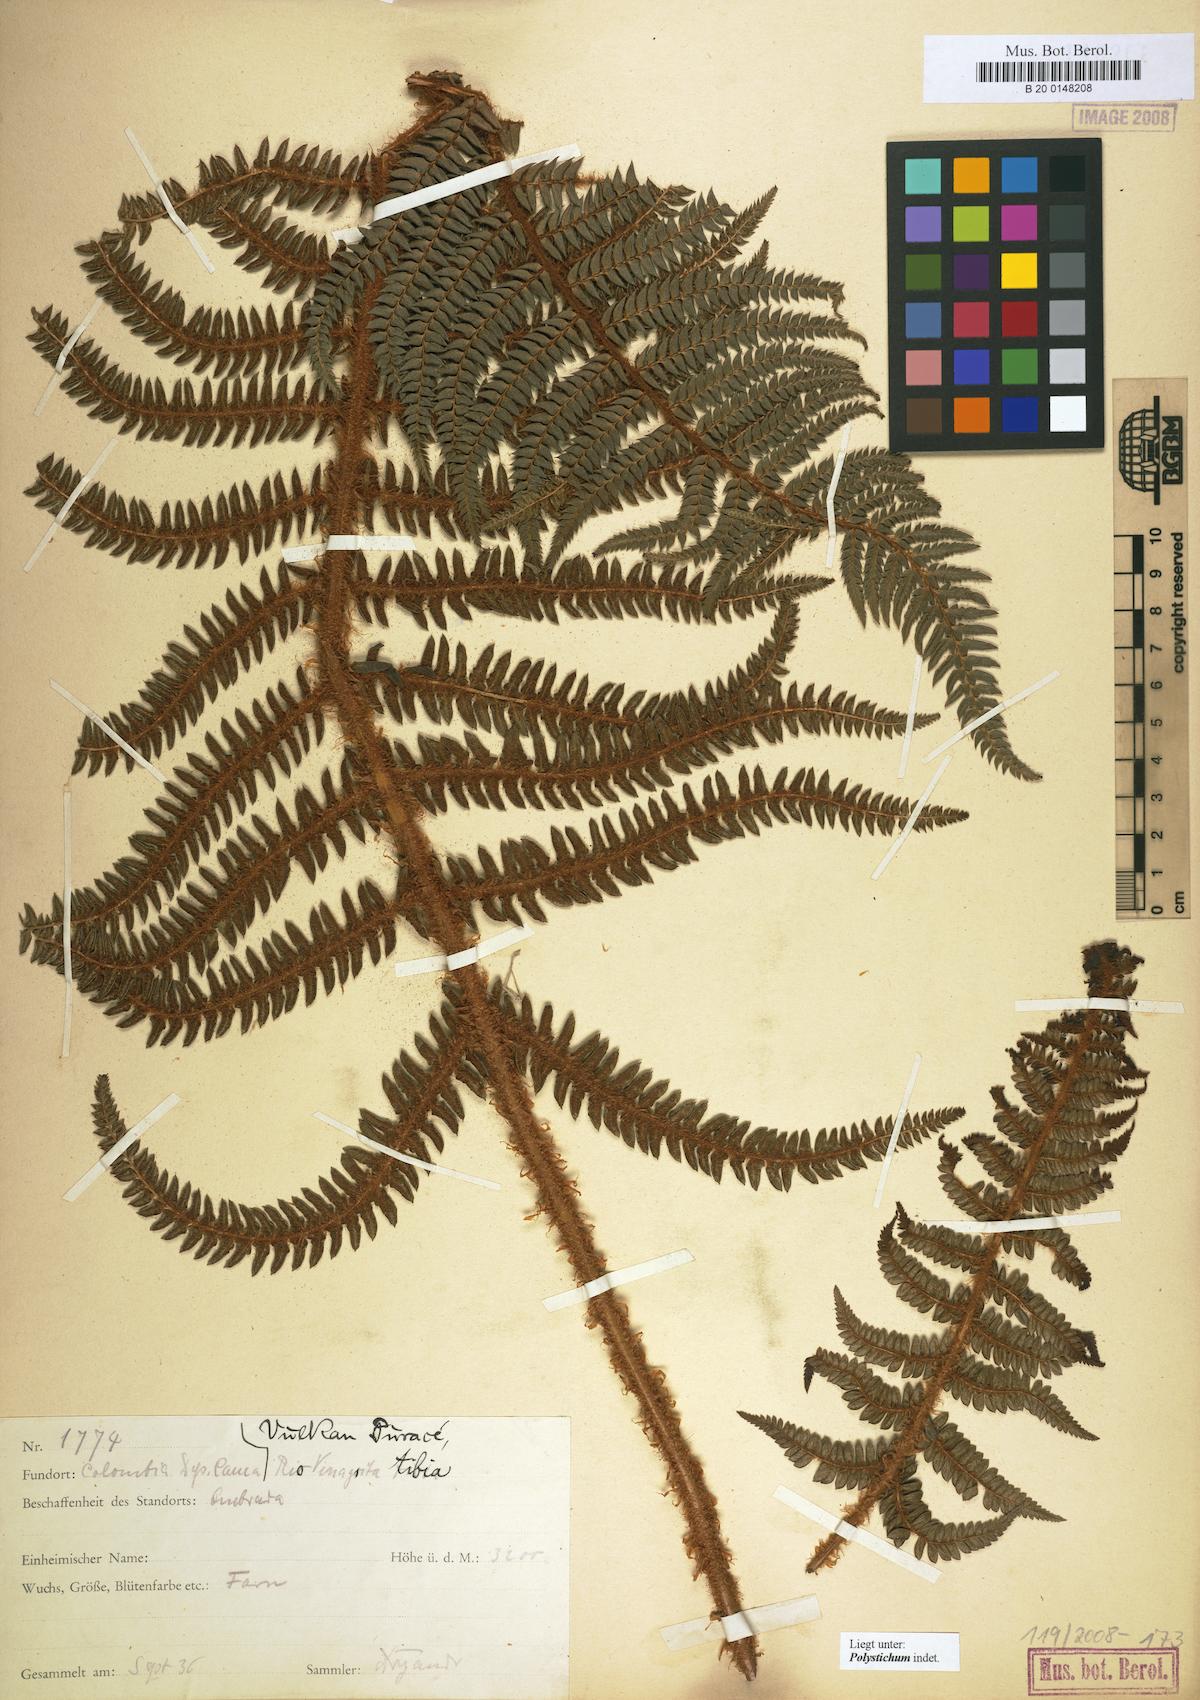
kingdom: Plantae
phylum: Tracheophyta
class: Polypodiopsida
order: Polypodiales
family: Dryopteridaceae
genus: Polystichum
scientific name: Polystichum
